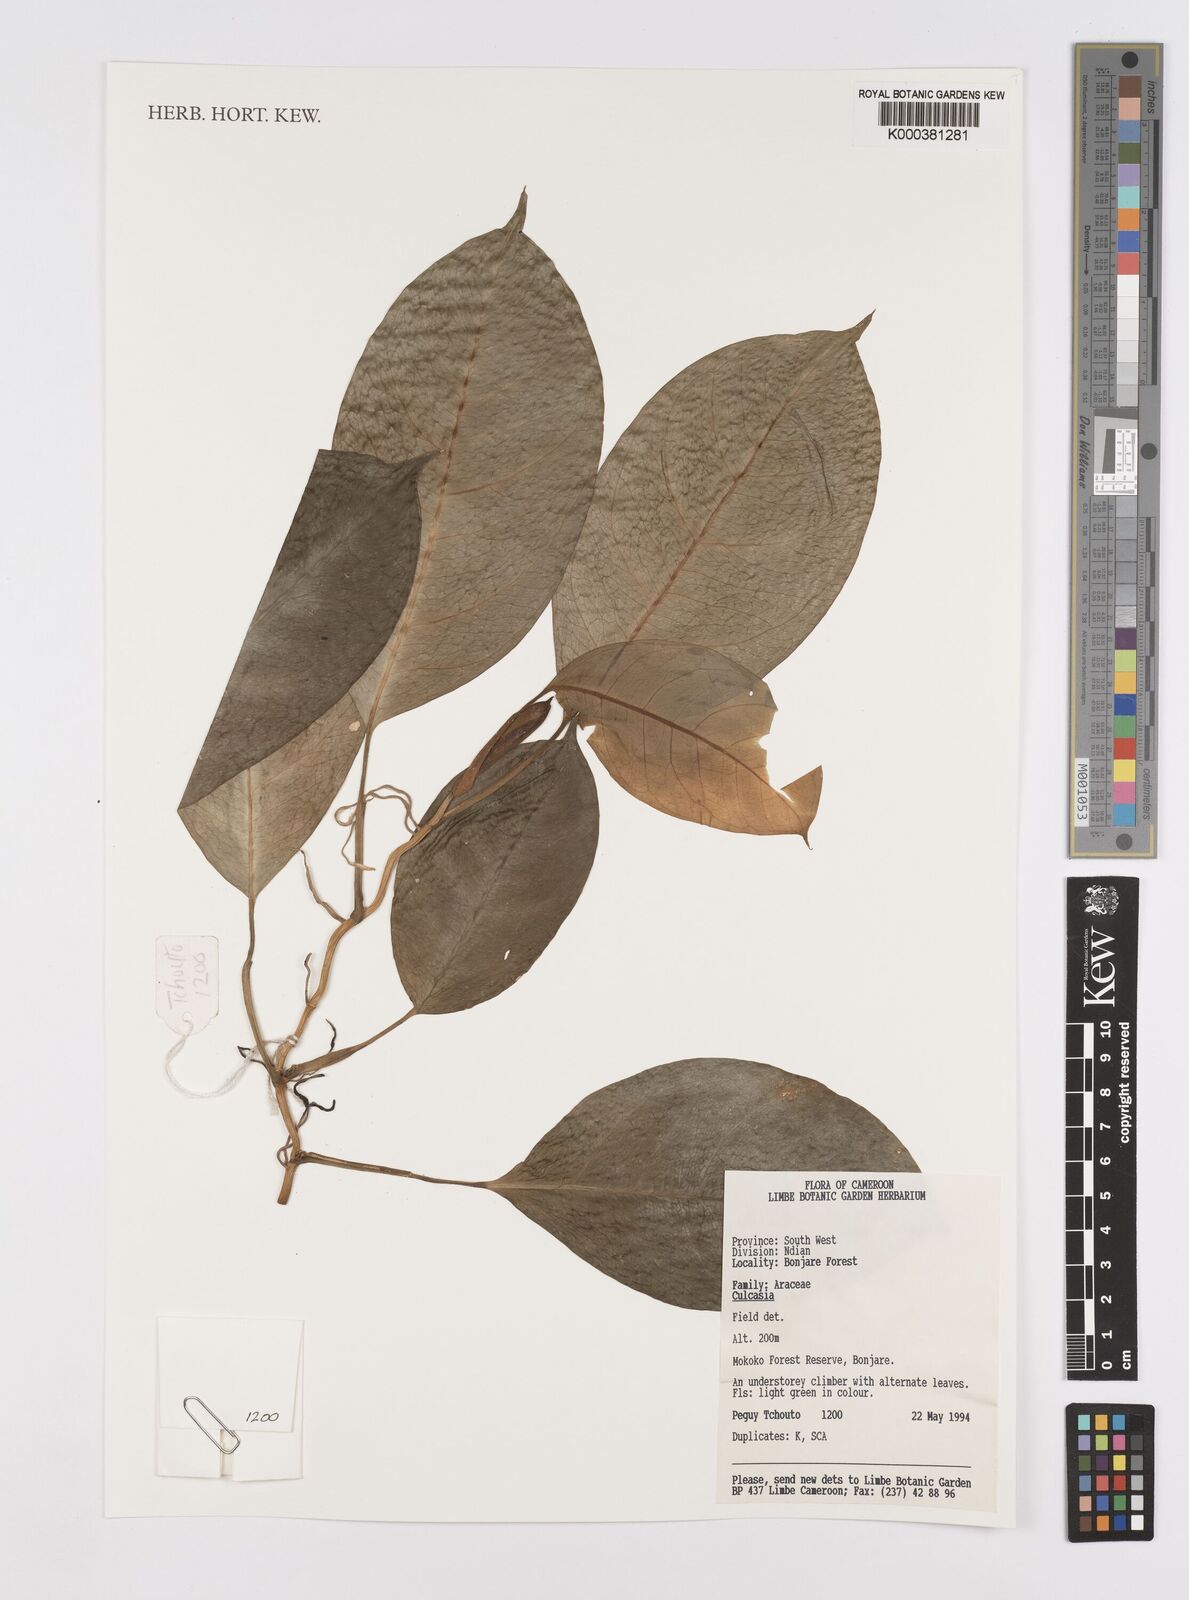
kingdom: Plantae
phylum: Tracheophyta
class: Liliopsida
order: Alismatales
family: Araceae
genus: Culcasia
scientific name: Culcasia
